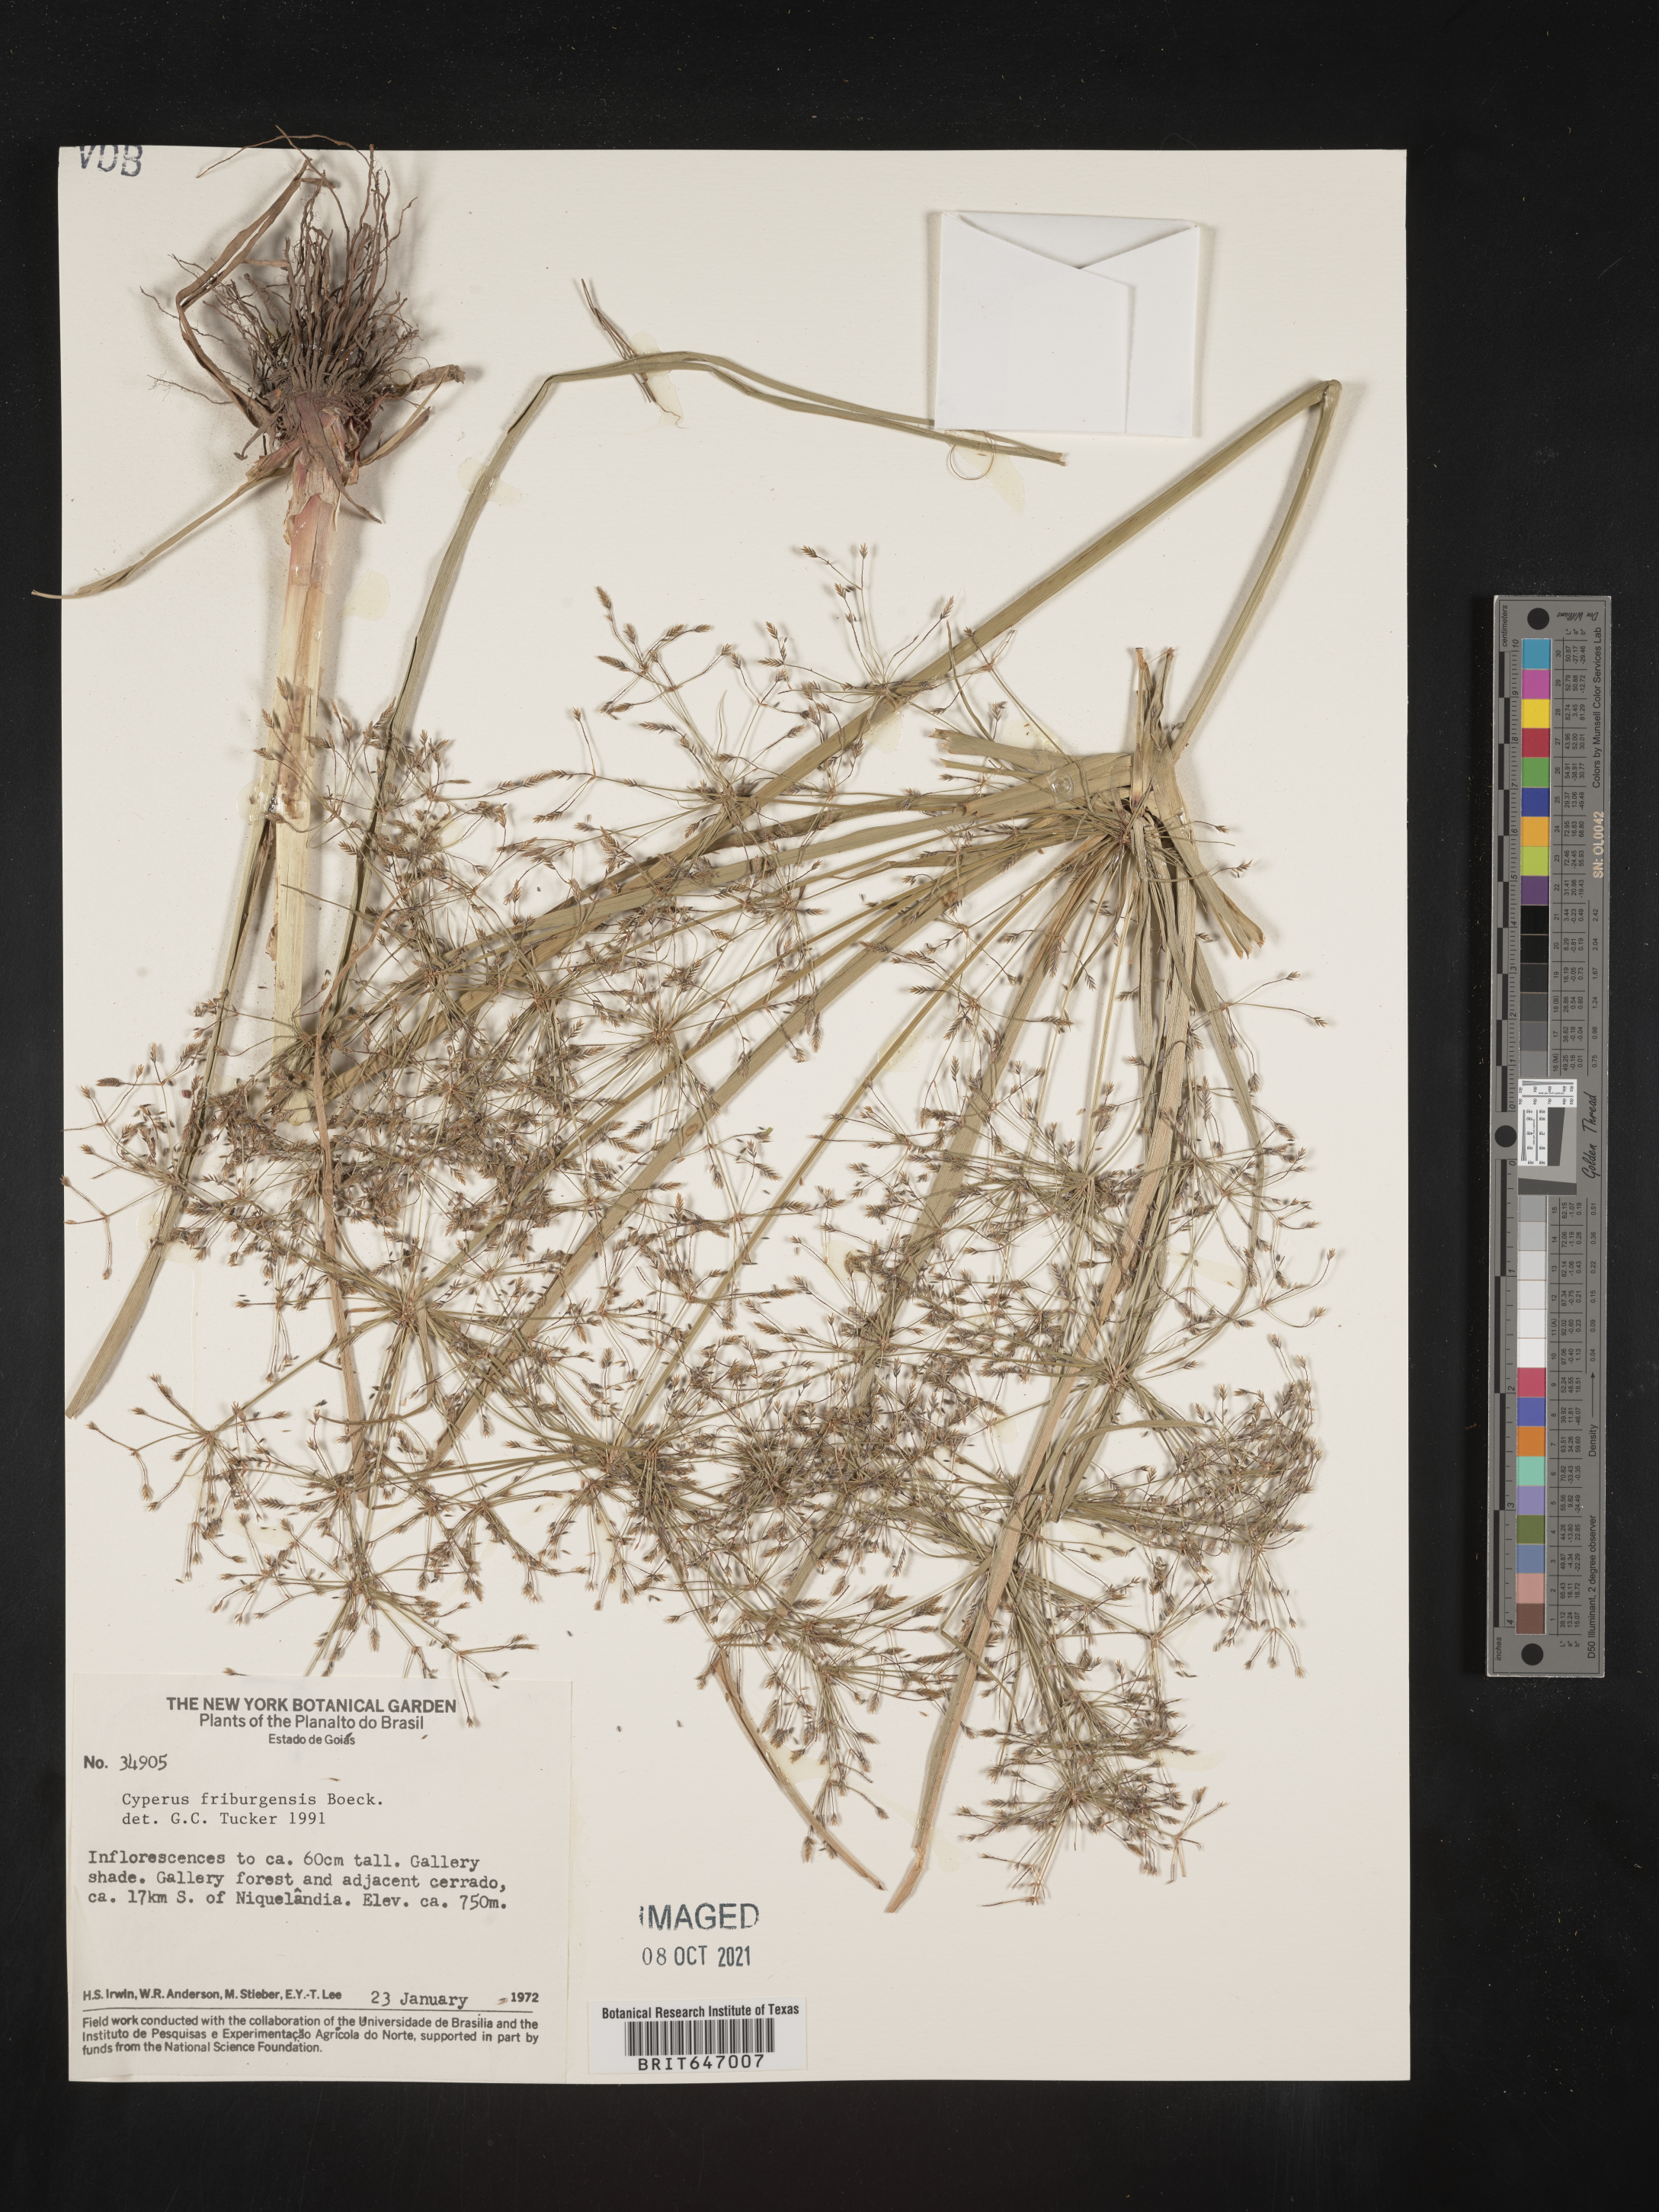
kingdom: Plantae
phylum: Tracheophyta
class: Liliopsida
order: Poales
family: Cyperaceae
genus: Cyperus
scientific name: Cyperus friburgensis
